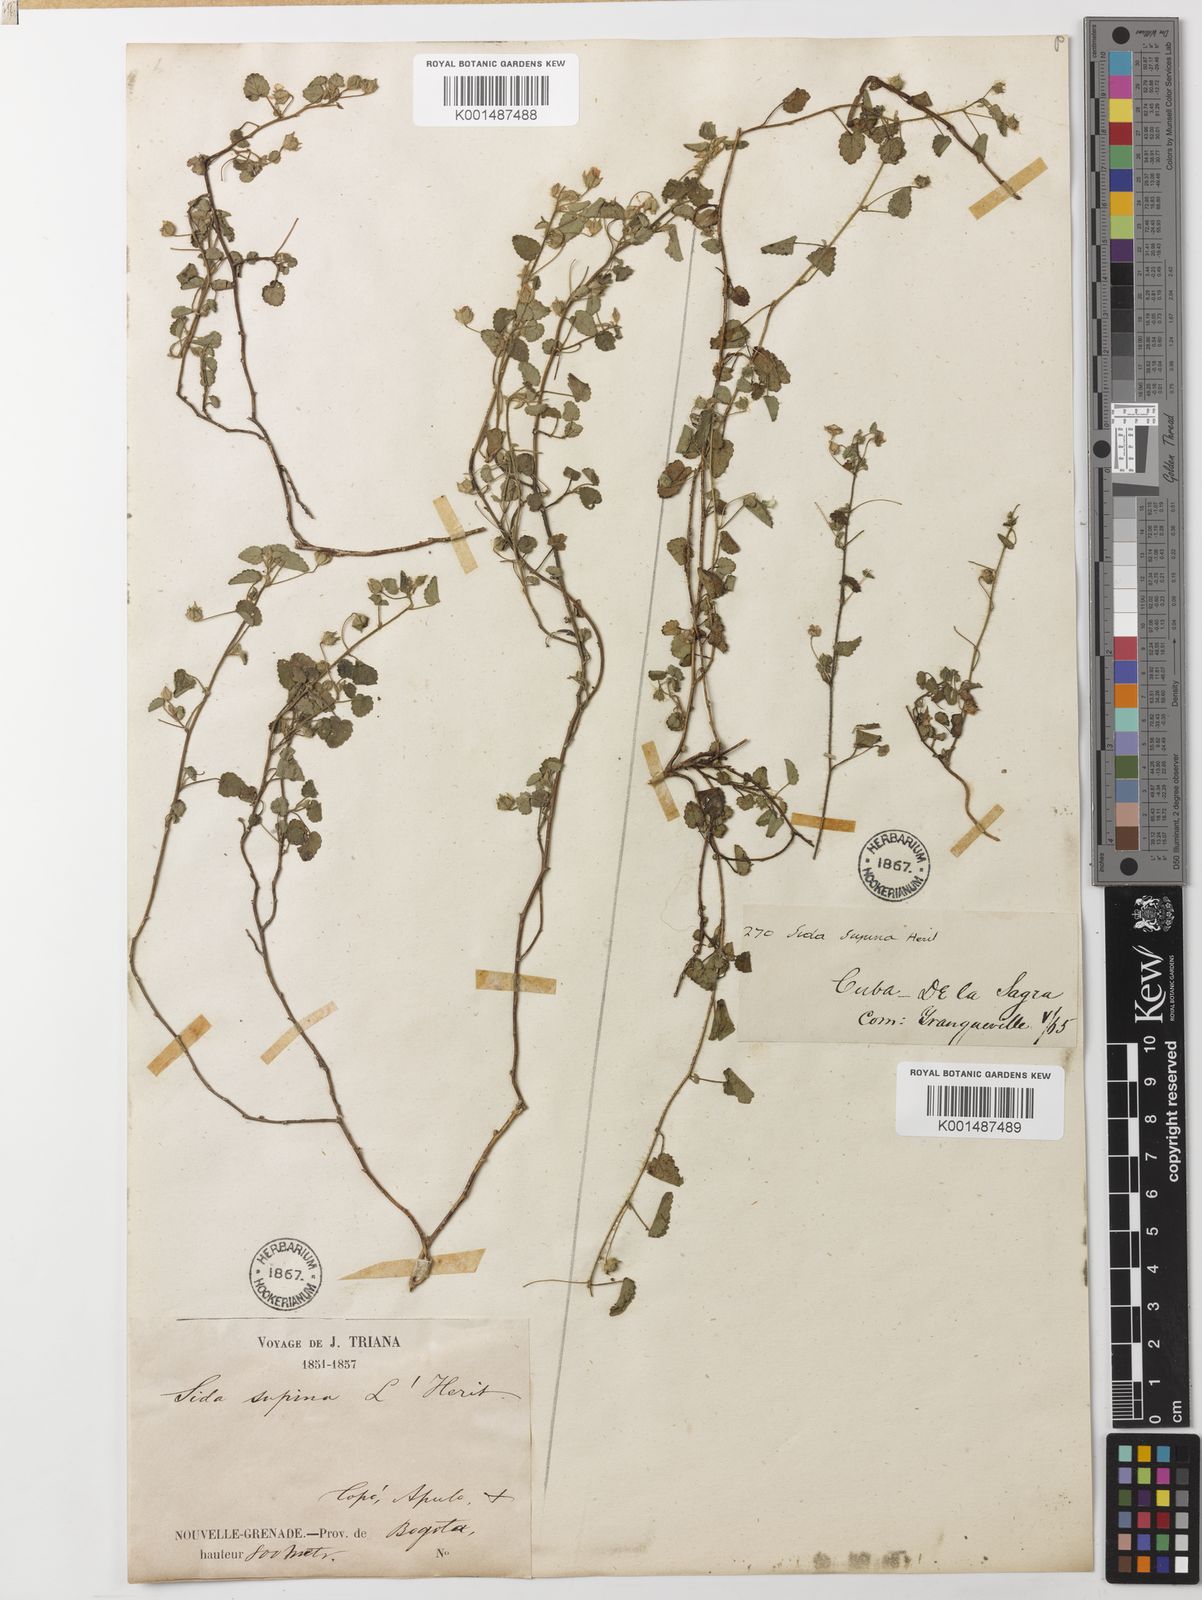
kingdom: Plantae
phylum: Tracheophyta
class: Magnoliopsida
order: Malvales
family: Malvaceae
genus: Sida
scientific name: Sida abutilifolia
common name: Spreading fanpetals
